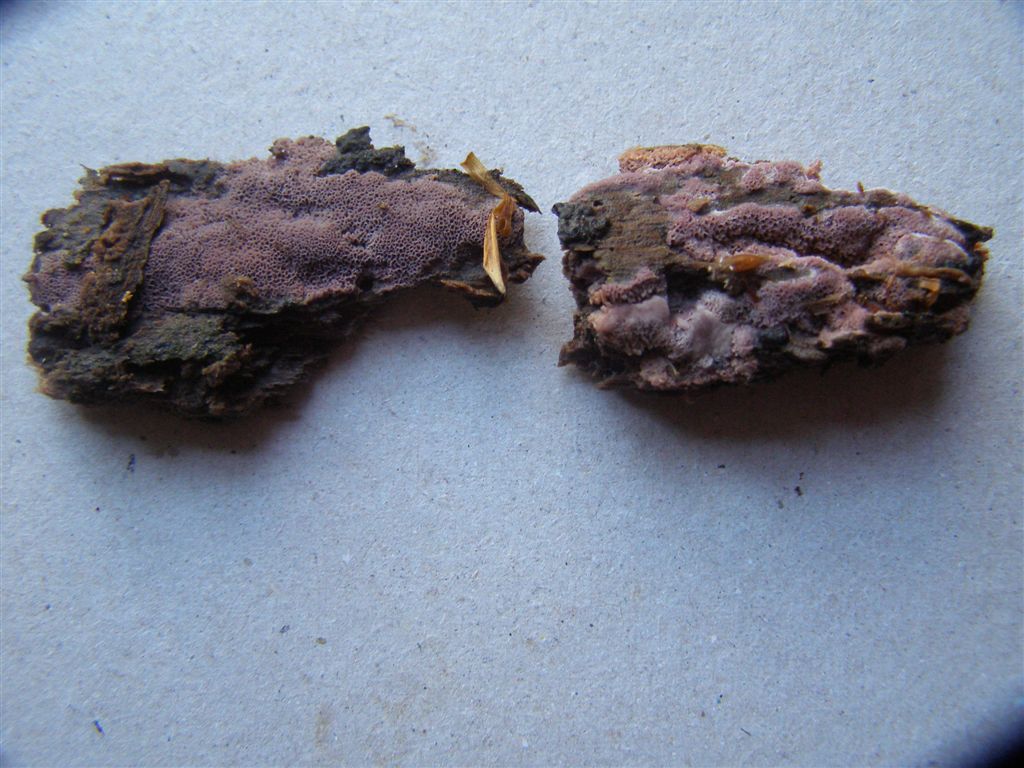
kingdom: Fungi
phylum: Basidiomycota
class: Agaricomycetes
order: Polyporales
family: Irpicaceae
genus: Ceriporia
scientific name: Ceriporia excelsa
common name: lilla voksporesvamp
